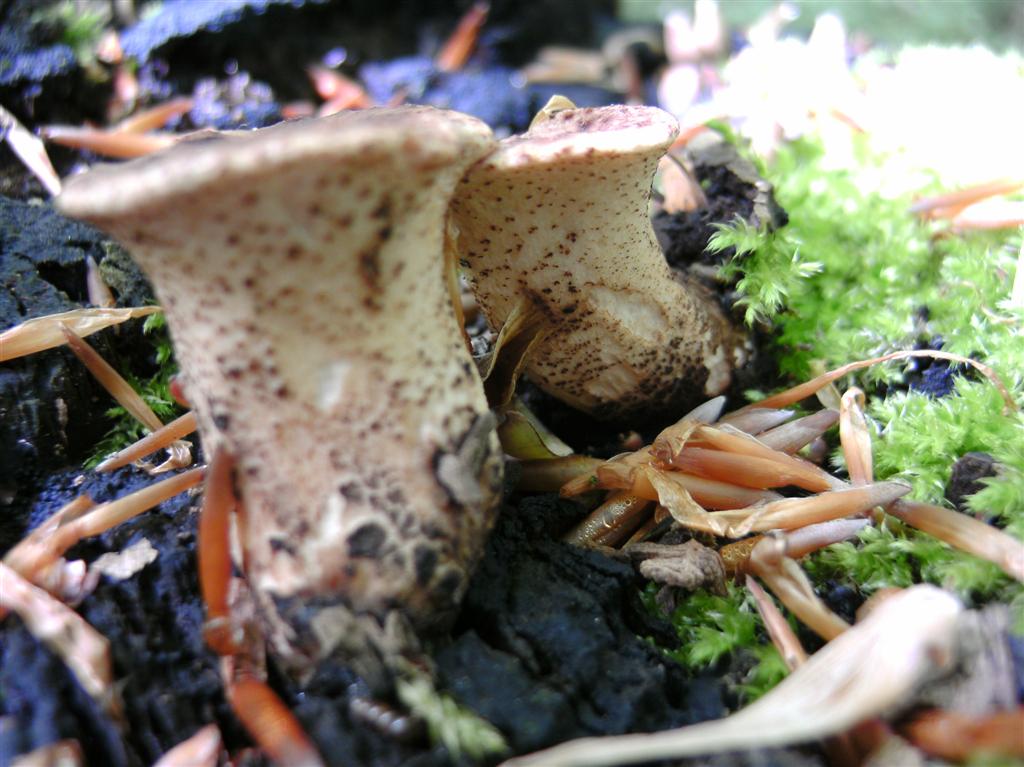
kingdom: Fungi
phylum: Basidiomycota
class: Agaricomycetes
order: Polyporales
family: Polyporaceae
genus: Cerioporus
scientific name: Cerioporus squamosus
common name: skællet stilkporesvamp
